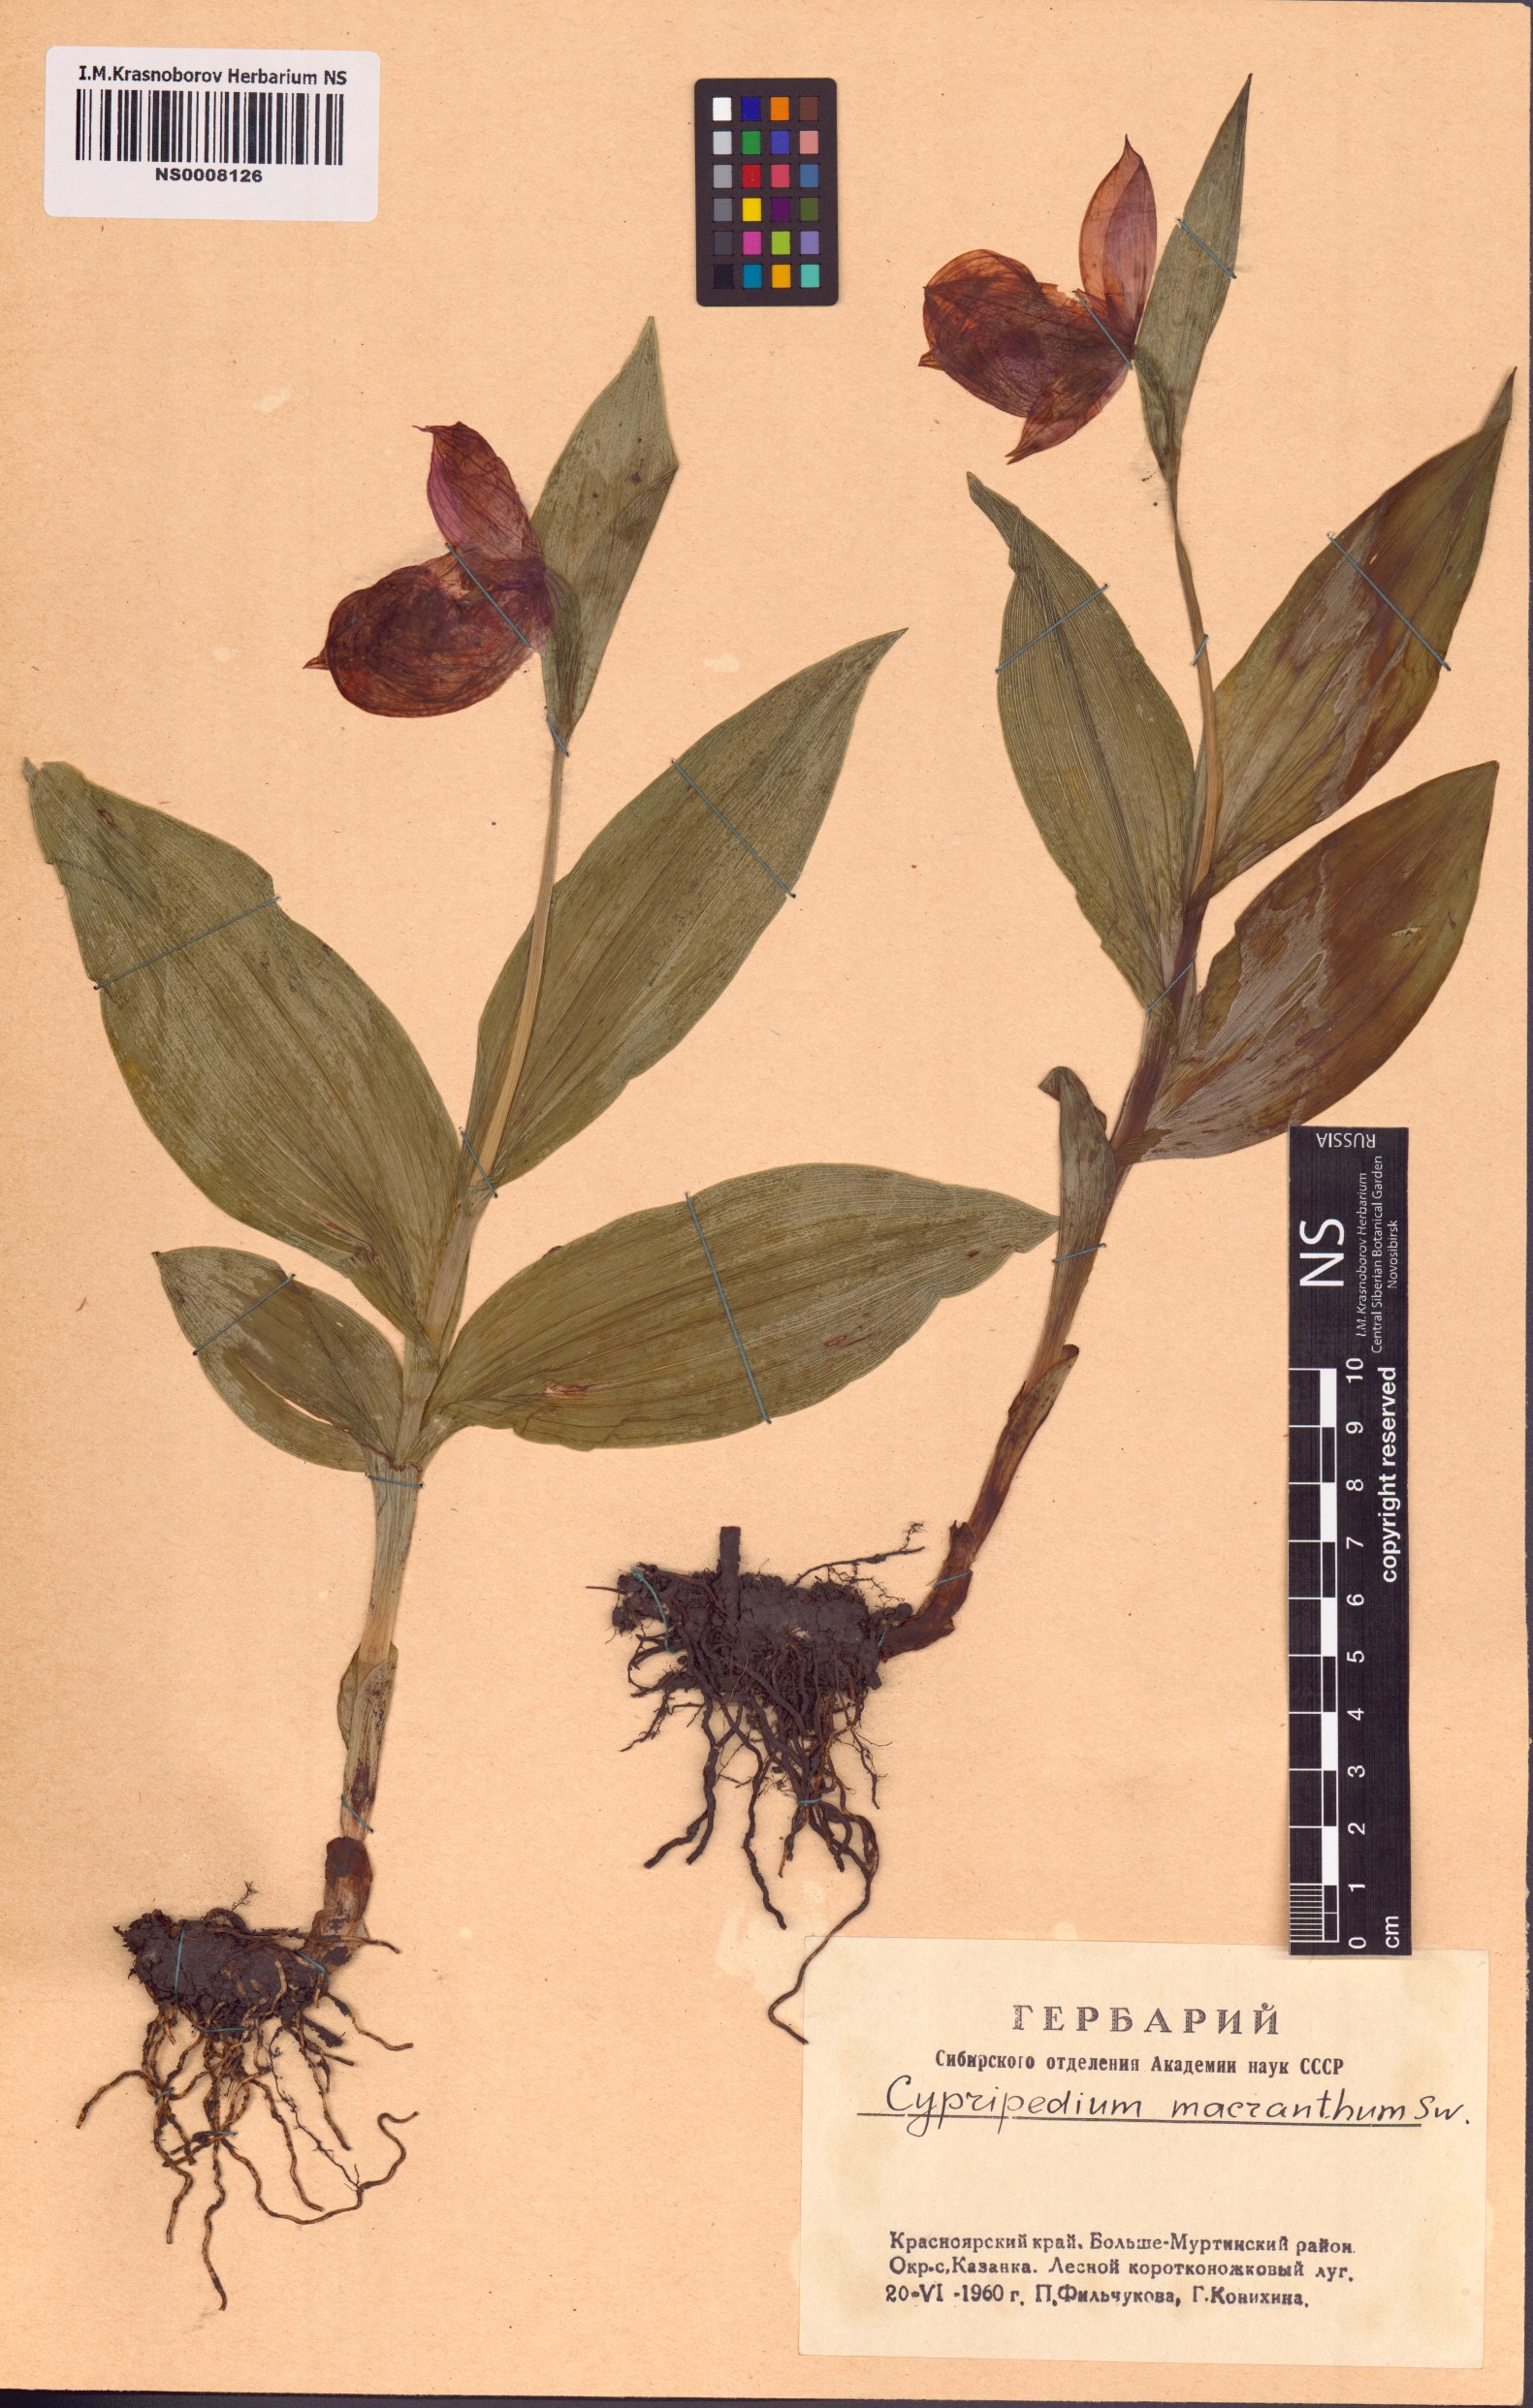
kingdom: Plantae
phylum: Tracheophyta
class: Liliopsida
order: Asparagales
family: Orchidaceae
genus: Cypripedium
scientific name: Cypripedium macranthos
